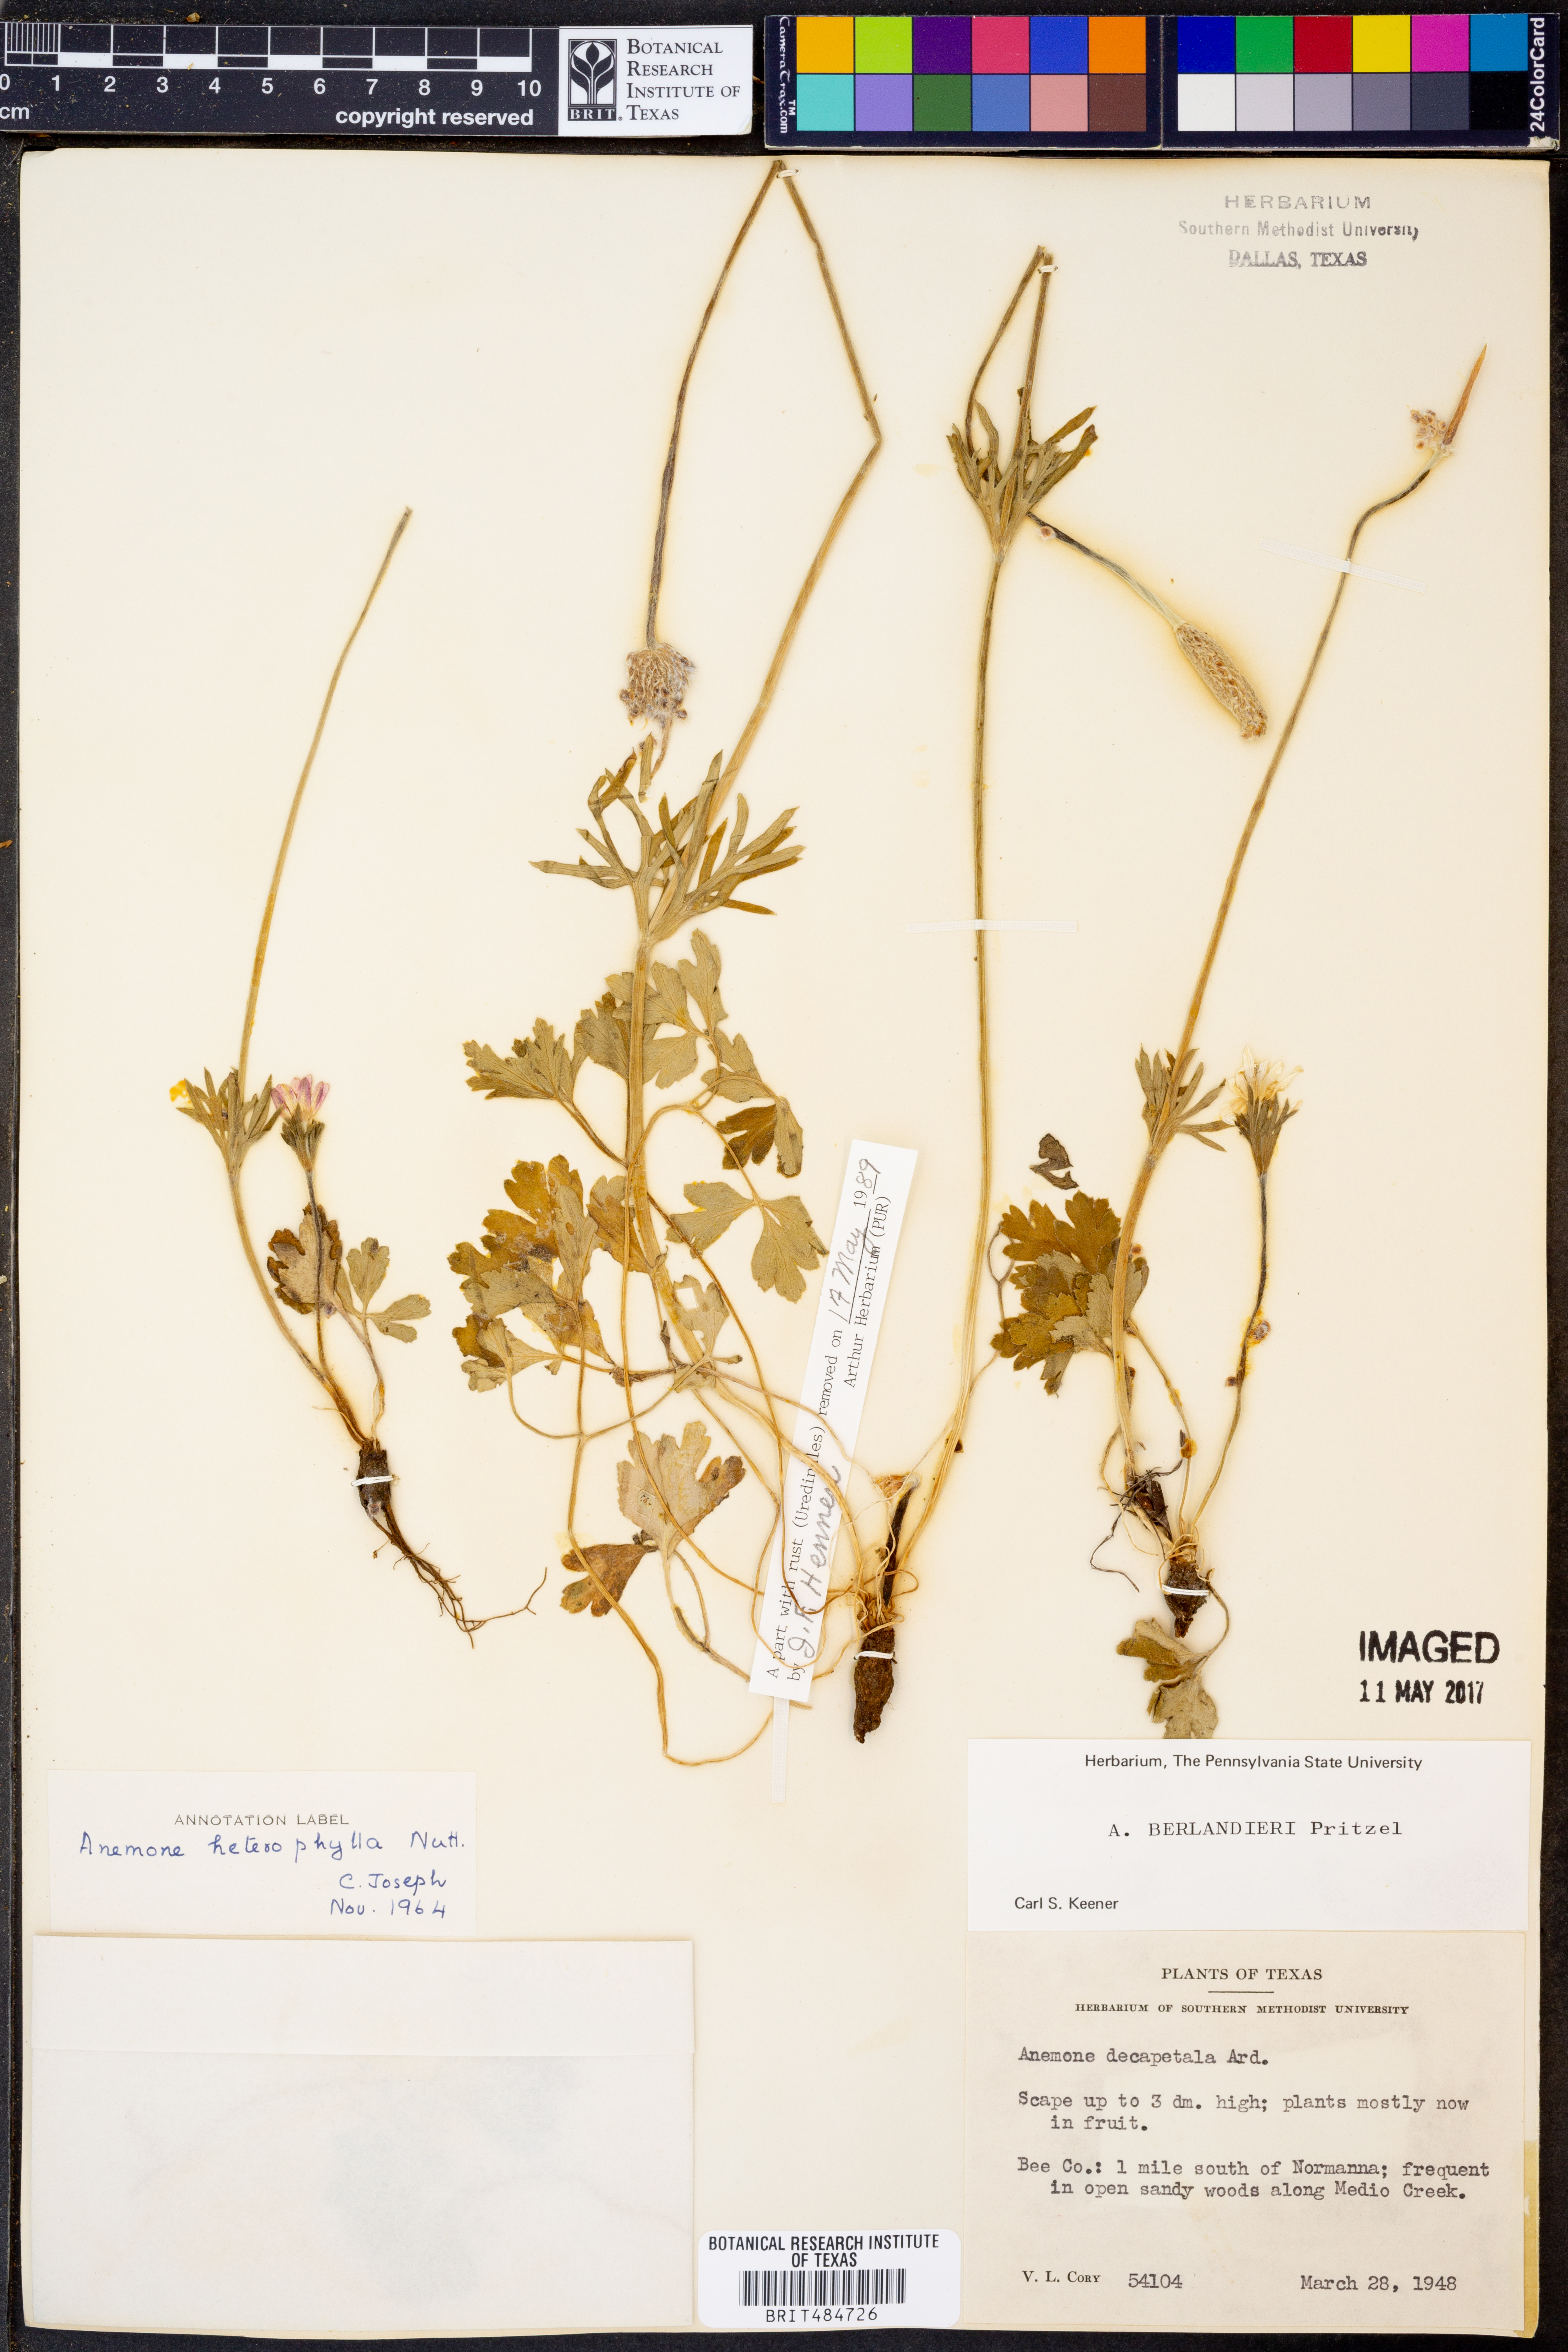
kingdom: Plantae
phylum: Tracheophyta
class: Magnoliopsida
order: Ranunculales
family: Ranunculaceae
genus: Anemone
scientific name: Anemone decapetala
